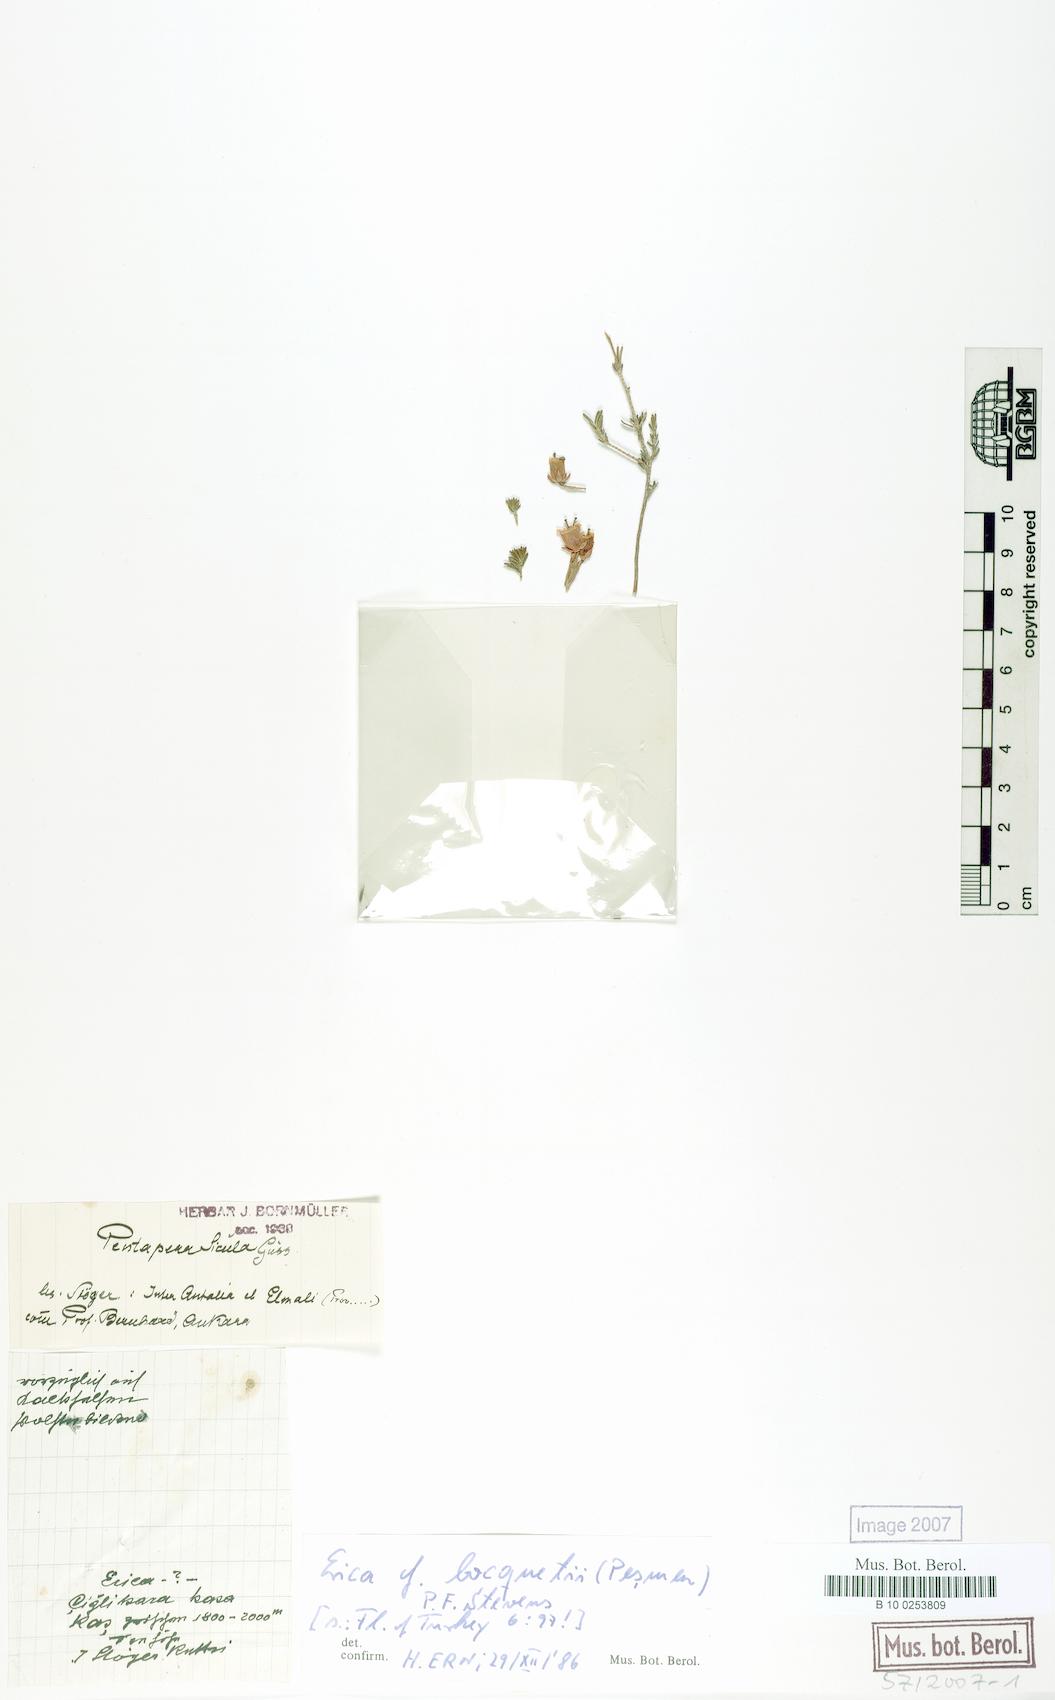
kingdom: Plantae
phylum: Tracheophyta
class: Magnoliopsida
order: Ericales
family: Ericaceae
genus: Erica
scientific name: Erica sicula
